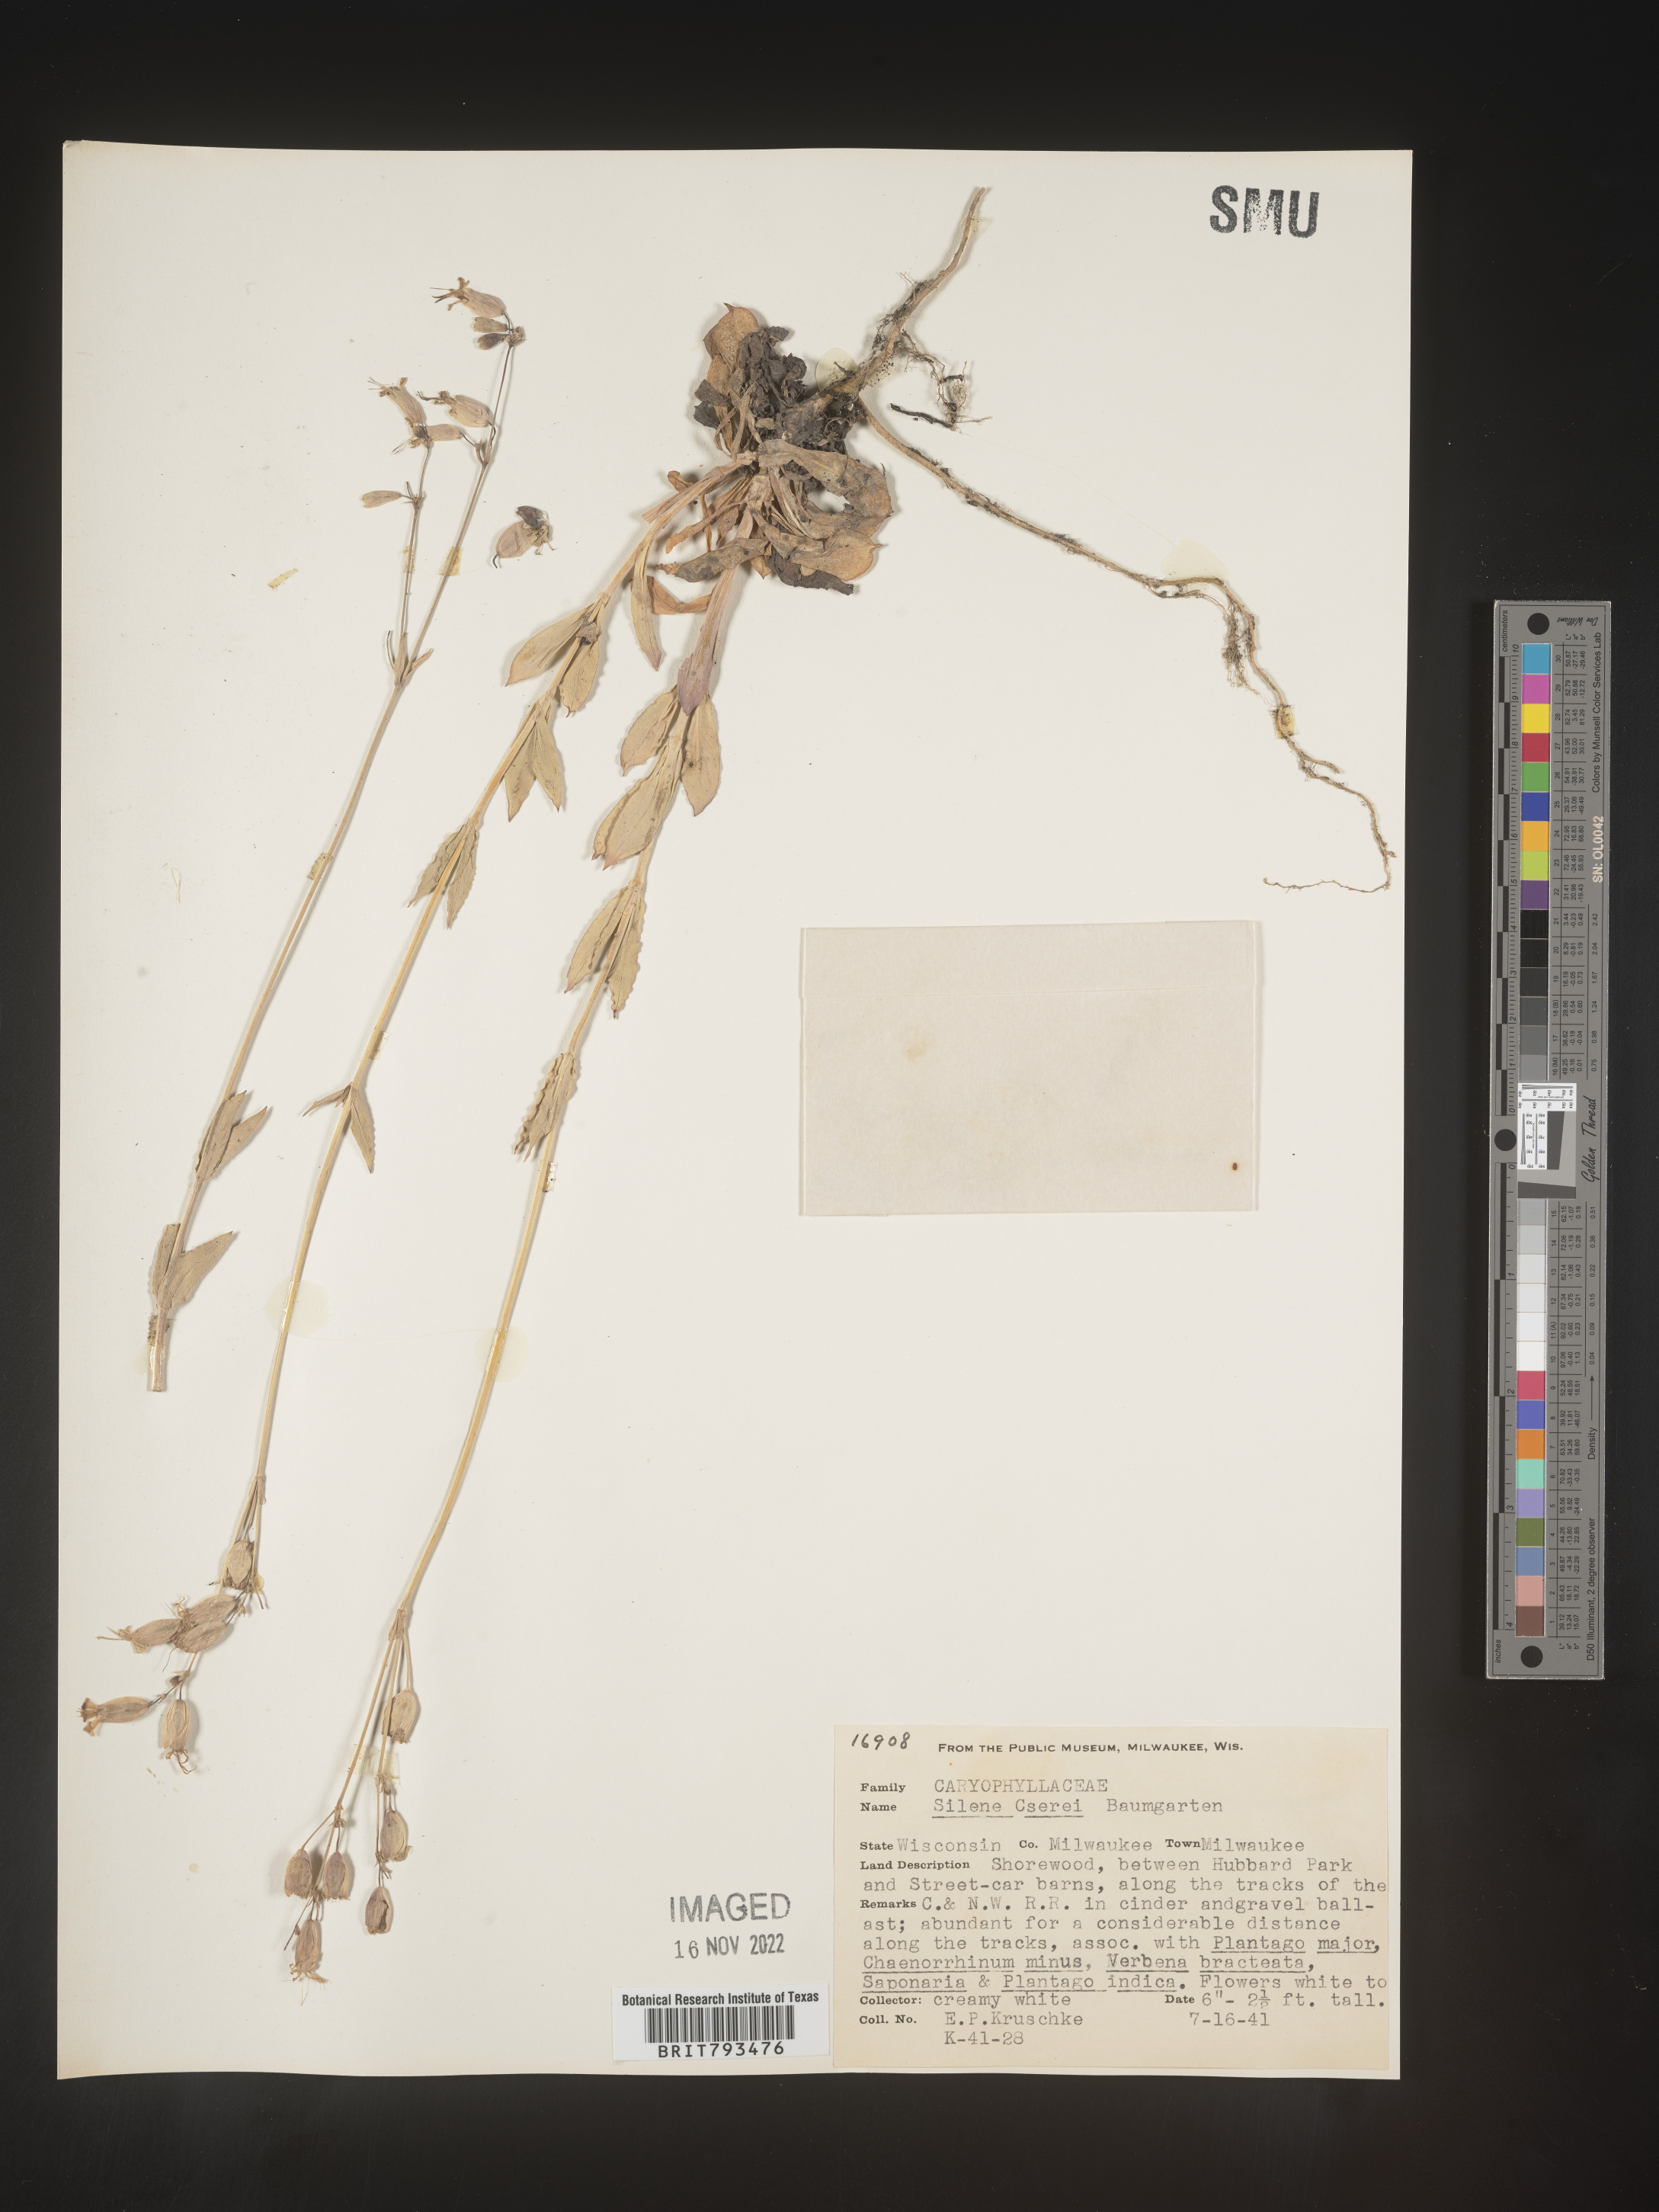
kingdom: Plantae
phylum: Tracheophyta
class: Magnoliopsida
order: Caryophyllales
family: Caryophyllaceae
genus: Silene
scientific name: Silene csereii
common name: Balkan catchfly
